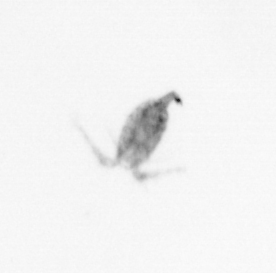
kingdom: Animalia
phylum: Arthropoda
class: Copepoda
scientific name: Copepoda
